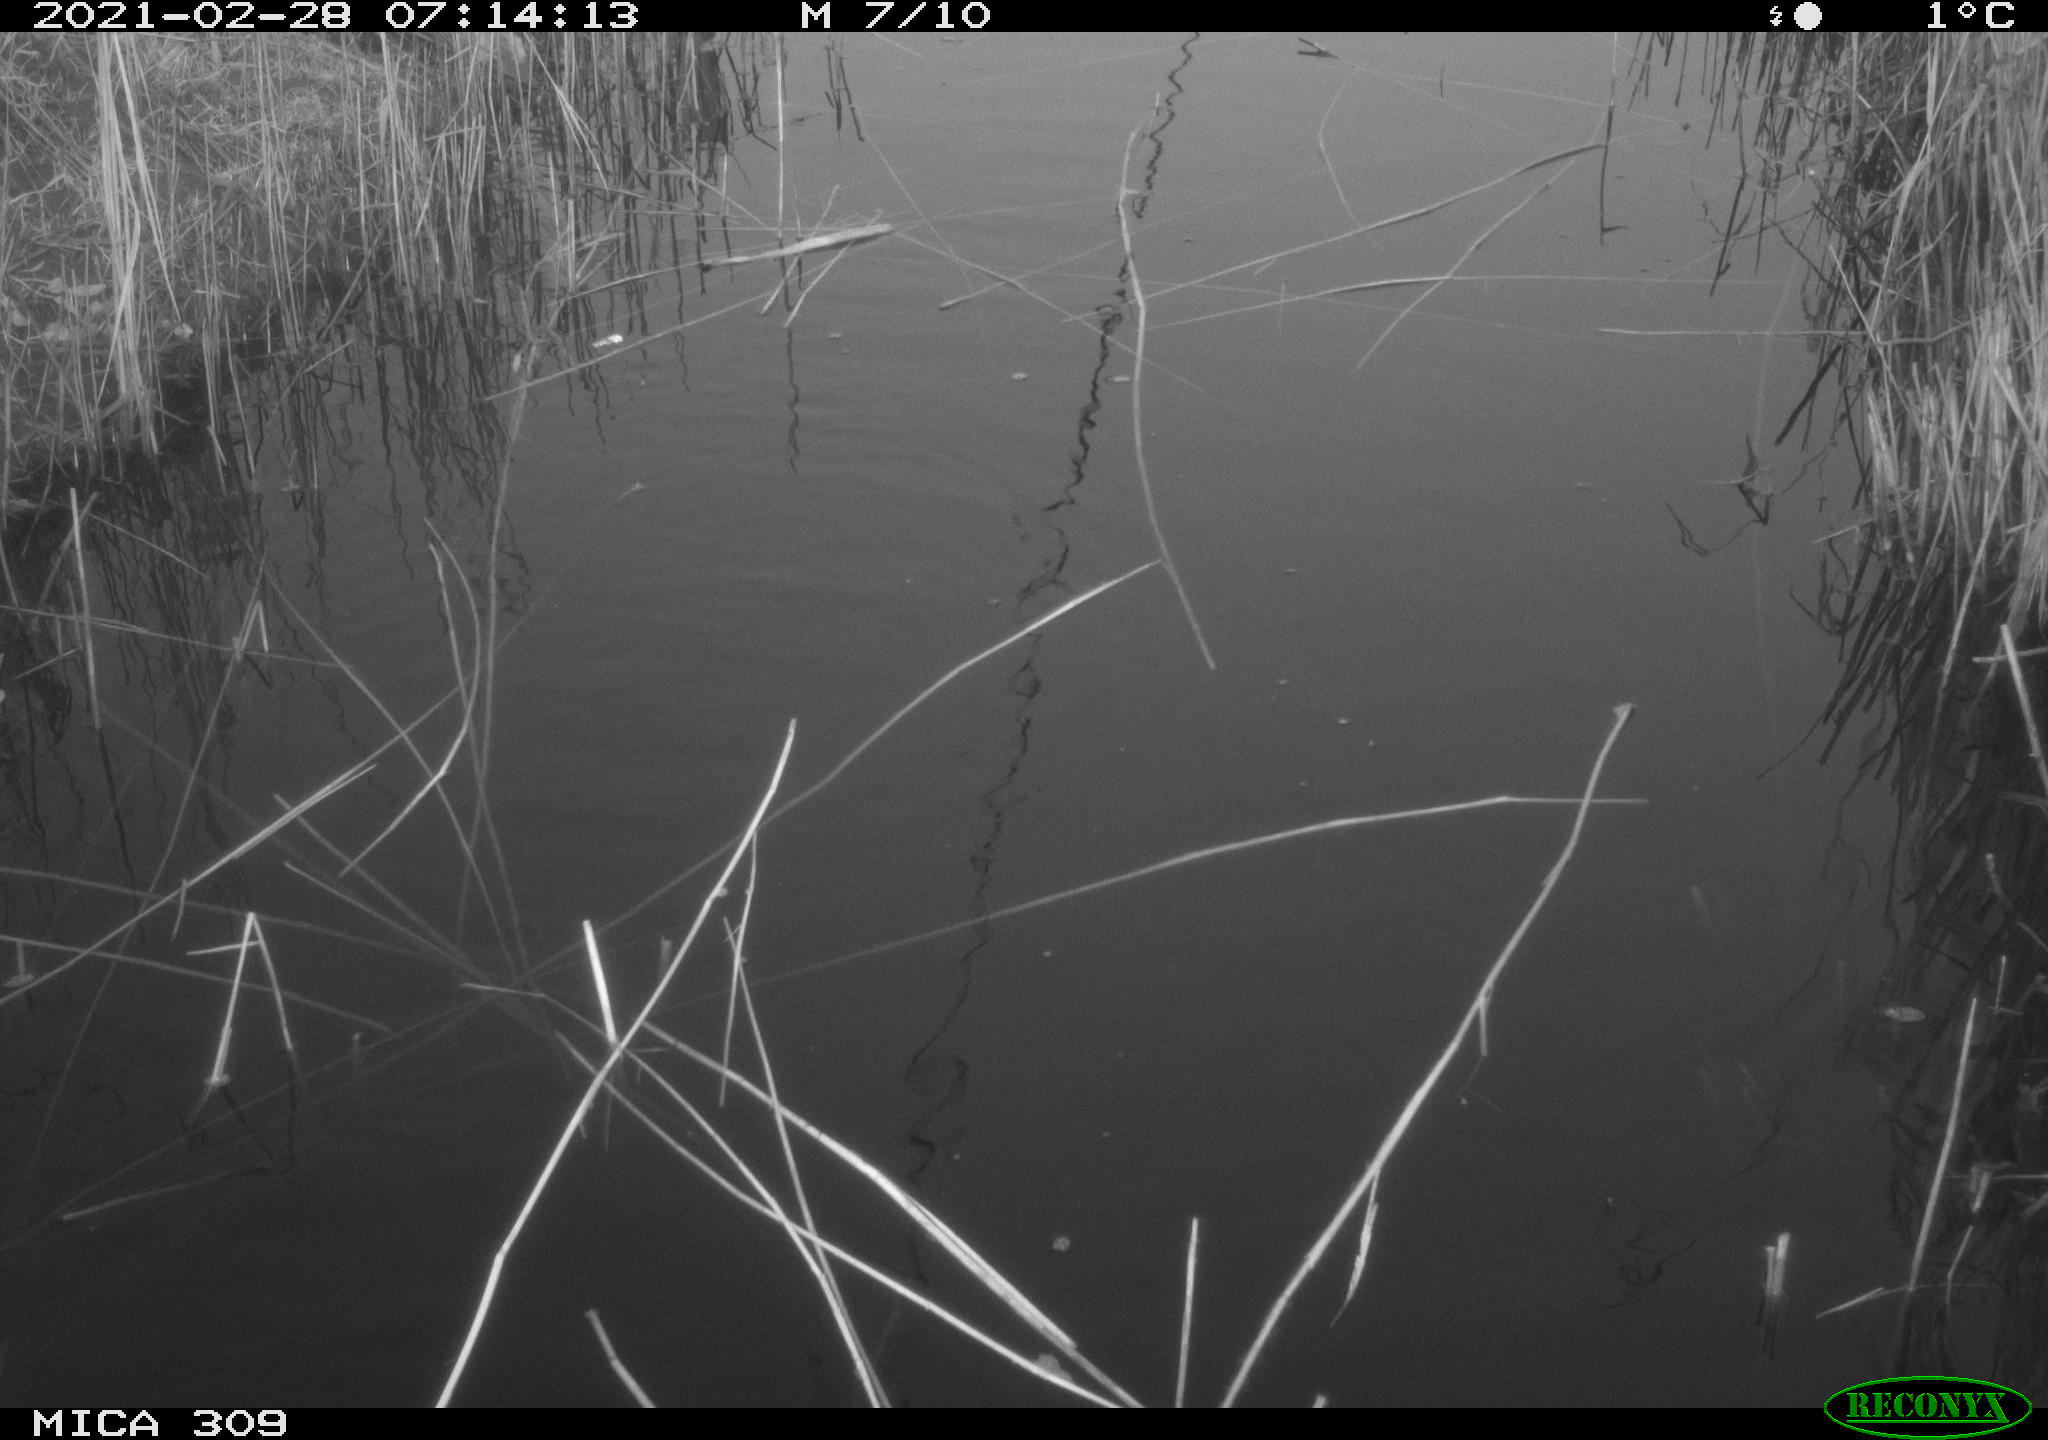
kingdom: Animalia
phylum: Chordata
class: Aves
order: Gruiformes
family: Rallidae
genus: Gallinula
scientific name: Gallinula chloropus
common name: Common moorhen
